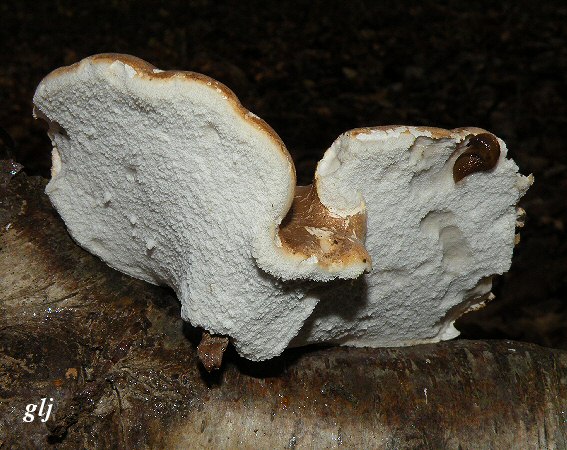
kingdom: Fungi
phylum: Basidiomycota
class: Agaricomycetes
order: Polyporales
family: Fomitopsidaceae
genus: Fomitopsis
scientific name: Fomitopsis betulina
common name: birkeporesvamp
